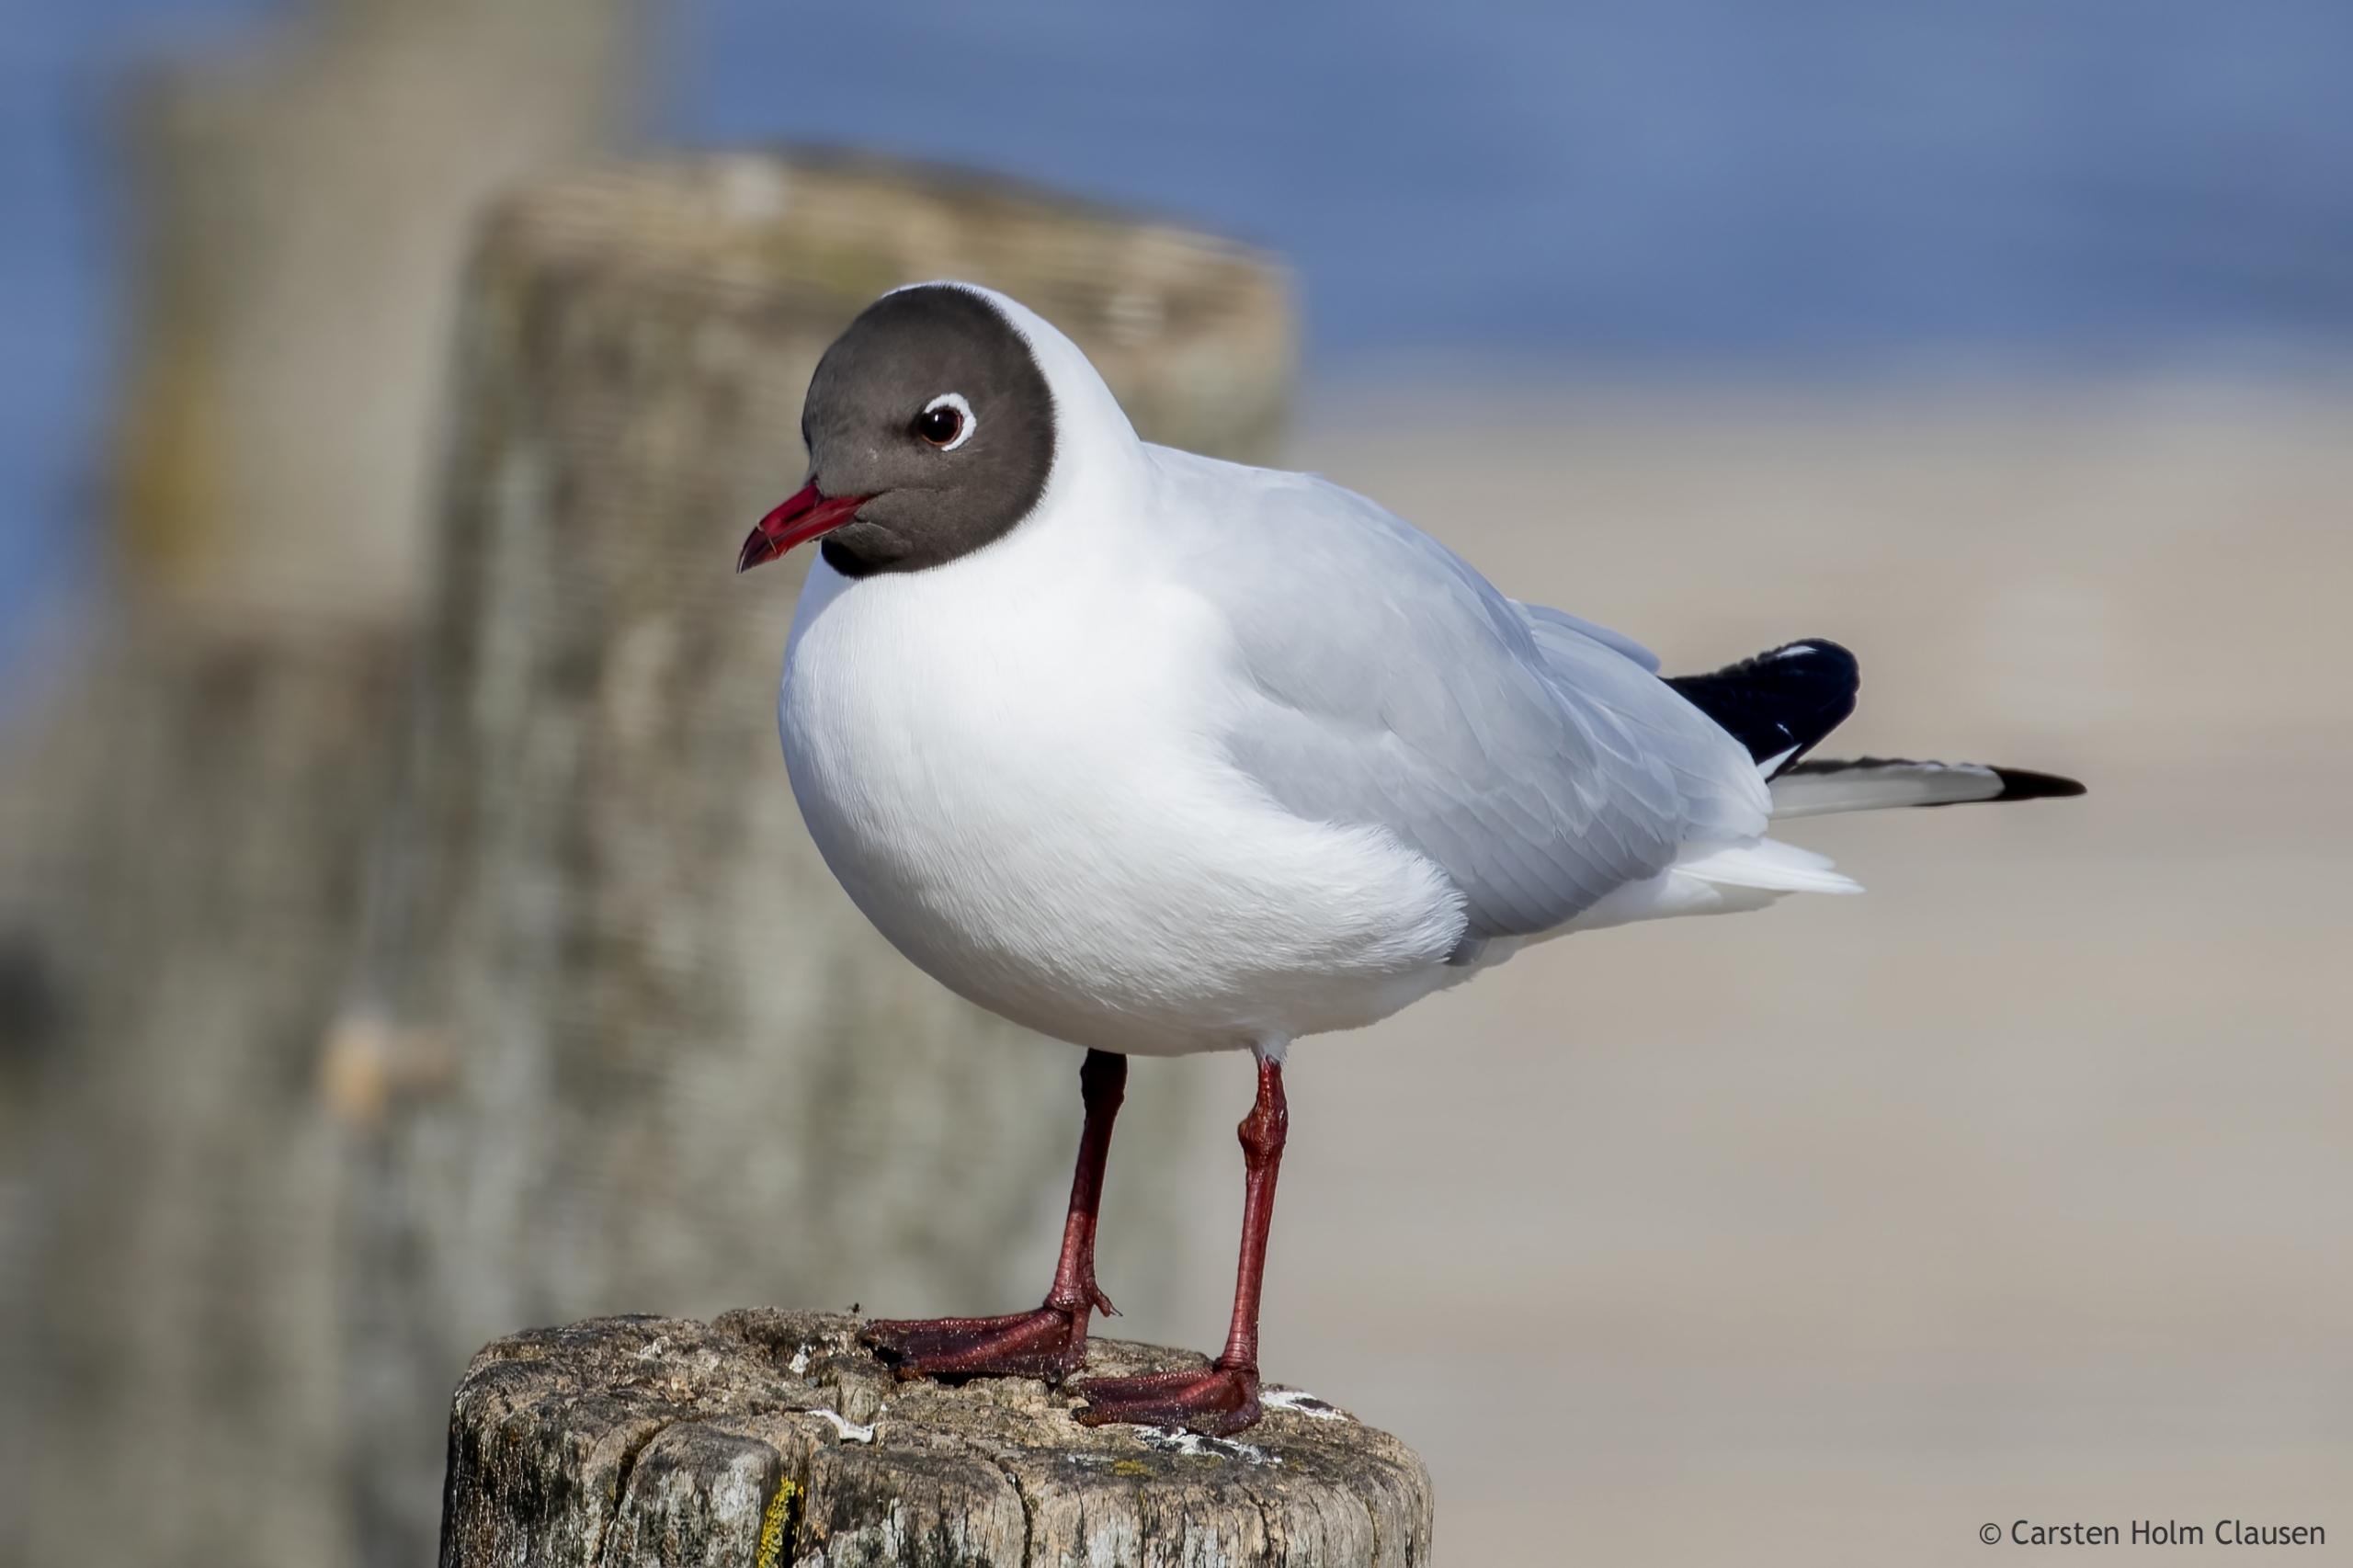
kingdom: Animalia
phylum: Chordata
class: Aves
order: Charadriiformes
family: Laridae
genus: Chroicocephalus
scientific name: Chroicocephalus ridibundus
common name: Hættemåge
